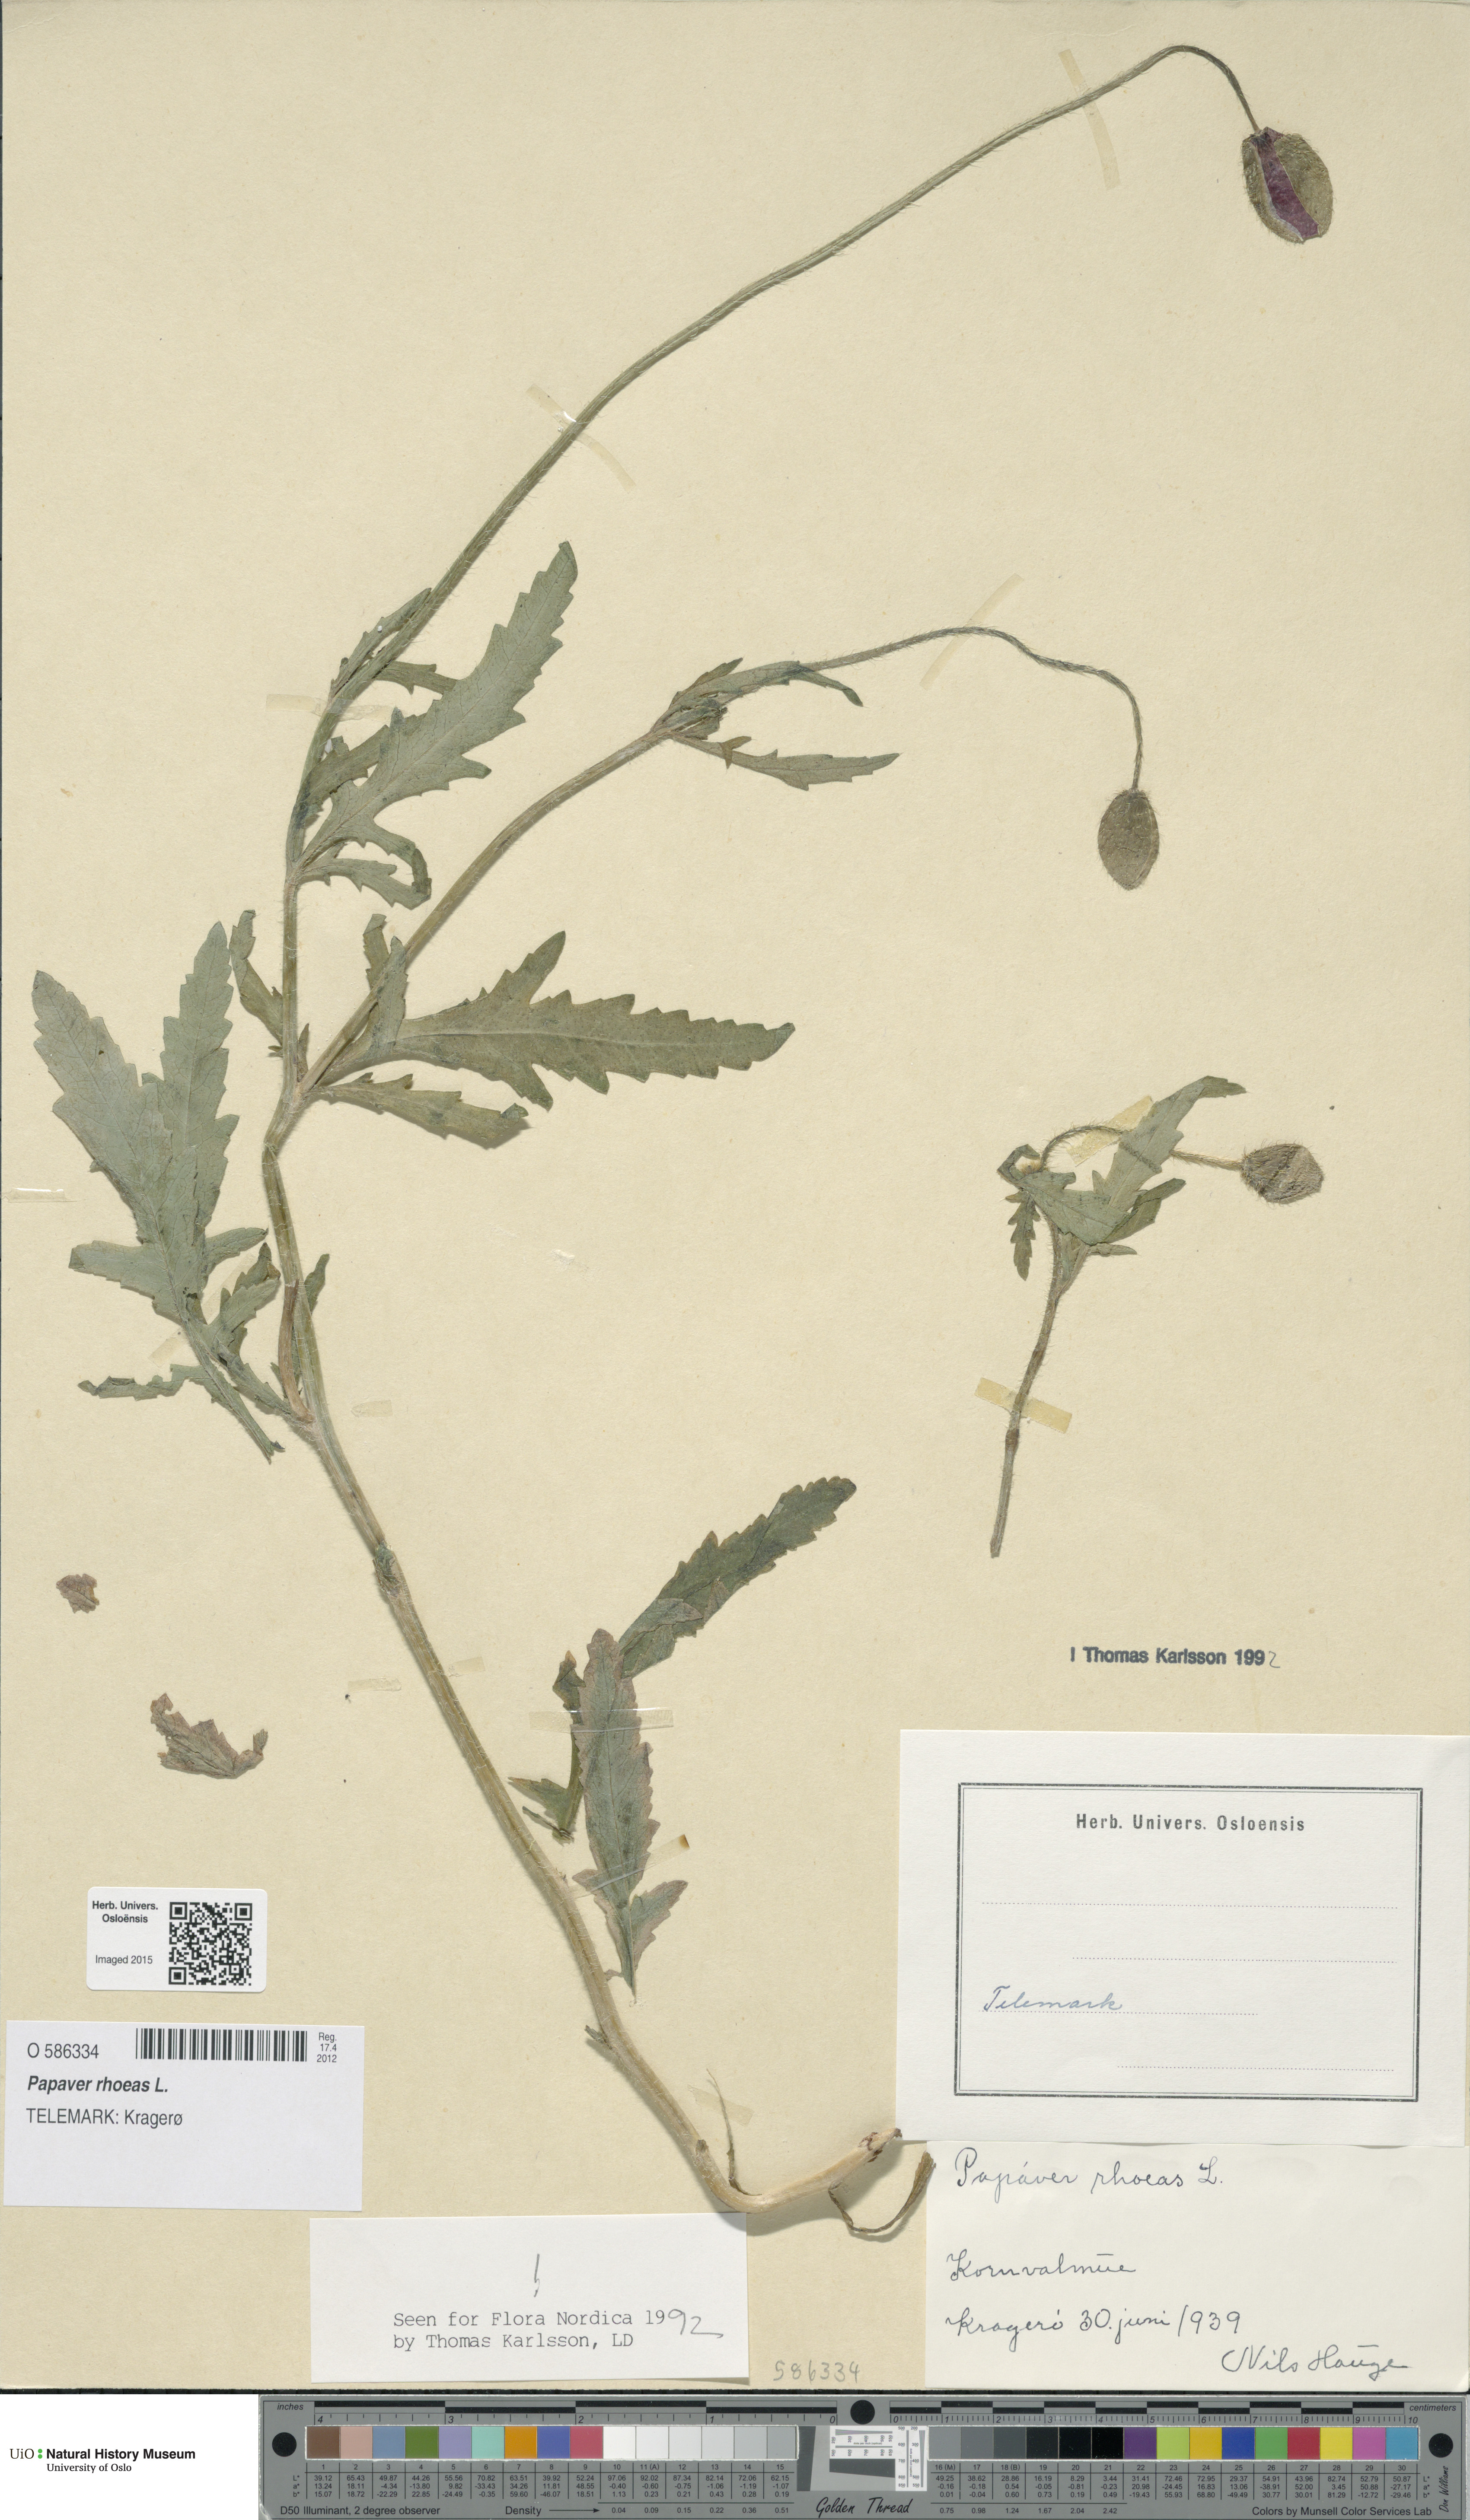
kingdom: Plantae
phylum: Tracheophyta
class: Magnoliopsida
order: Ranunculales
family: Papaveraceae
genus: Papaver
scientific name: Papaver rhoeas
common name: Corn poppy
